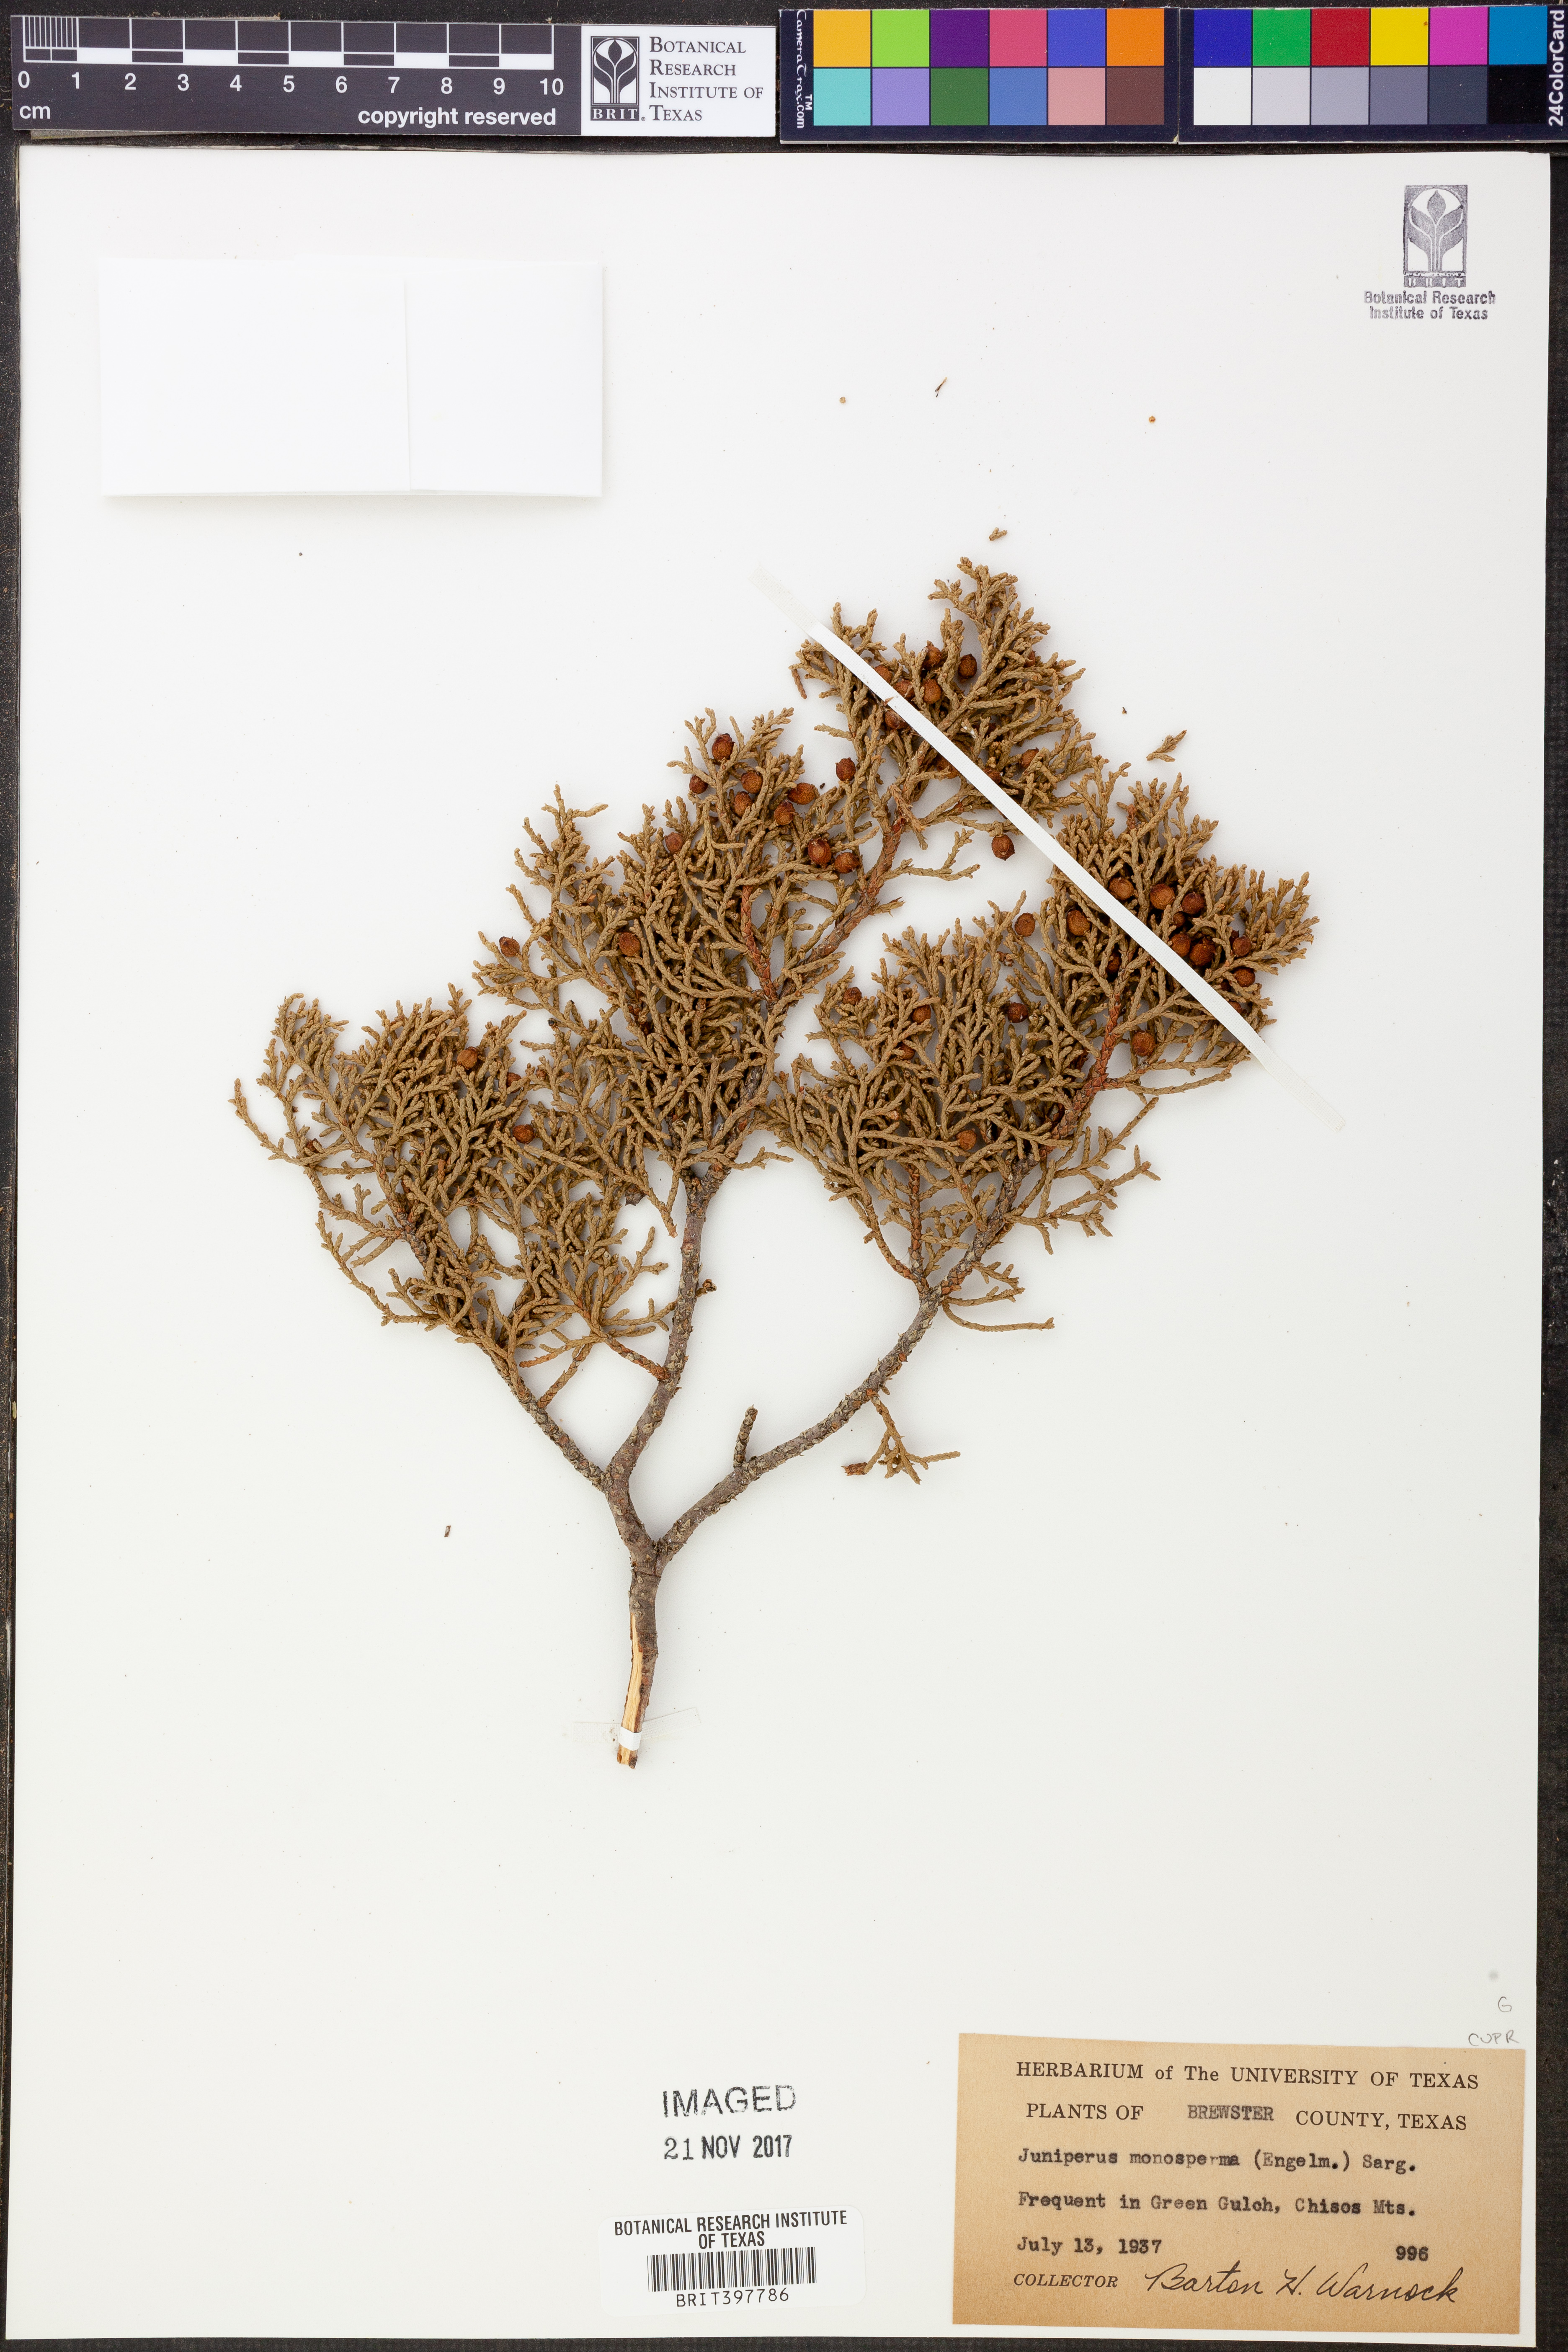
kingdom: Plantae
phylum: Tracheophyta
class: Pinopsida
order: Pinales
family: Cupressaceae
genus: Juniperus
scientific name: Juniperus monosperma
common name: One-seed juniper
